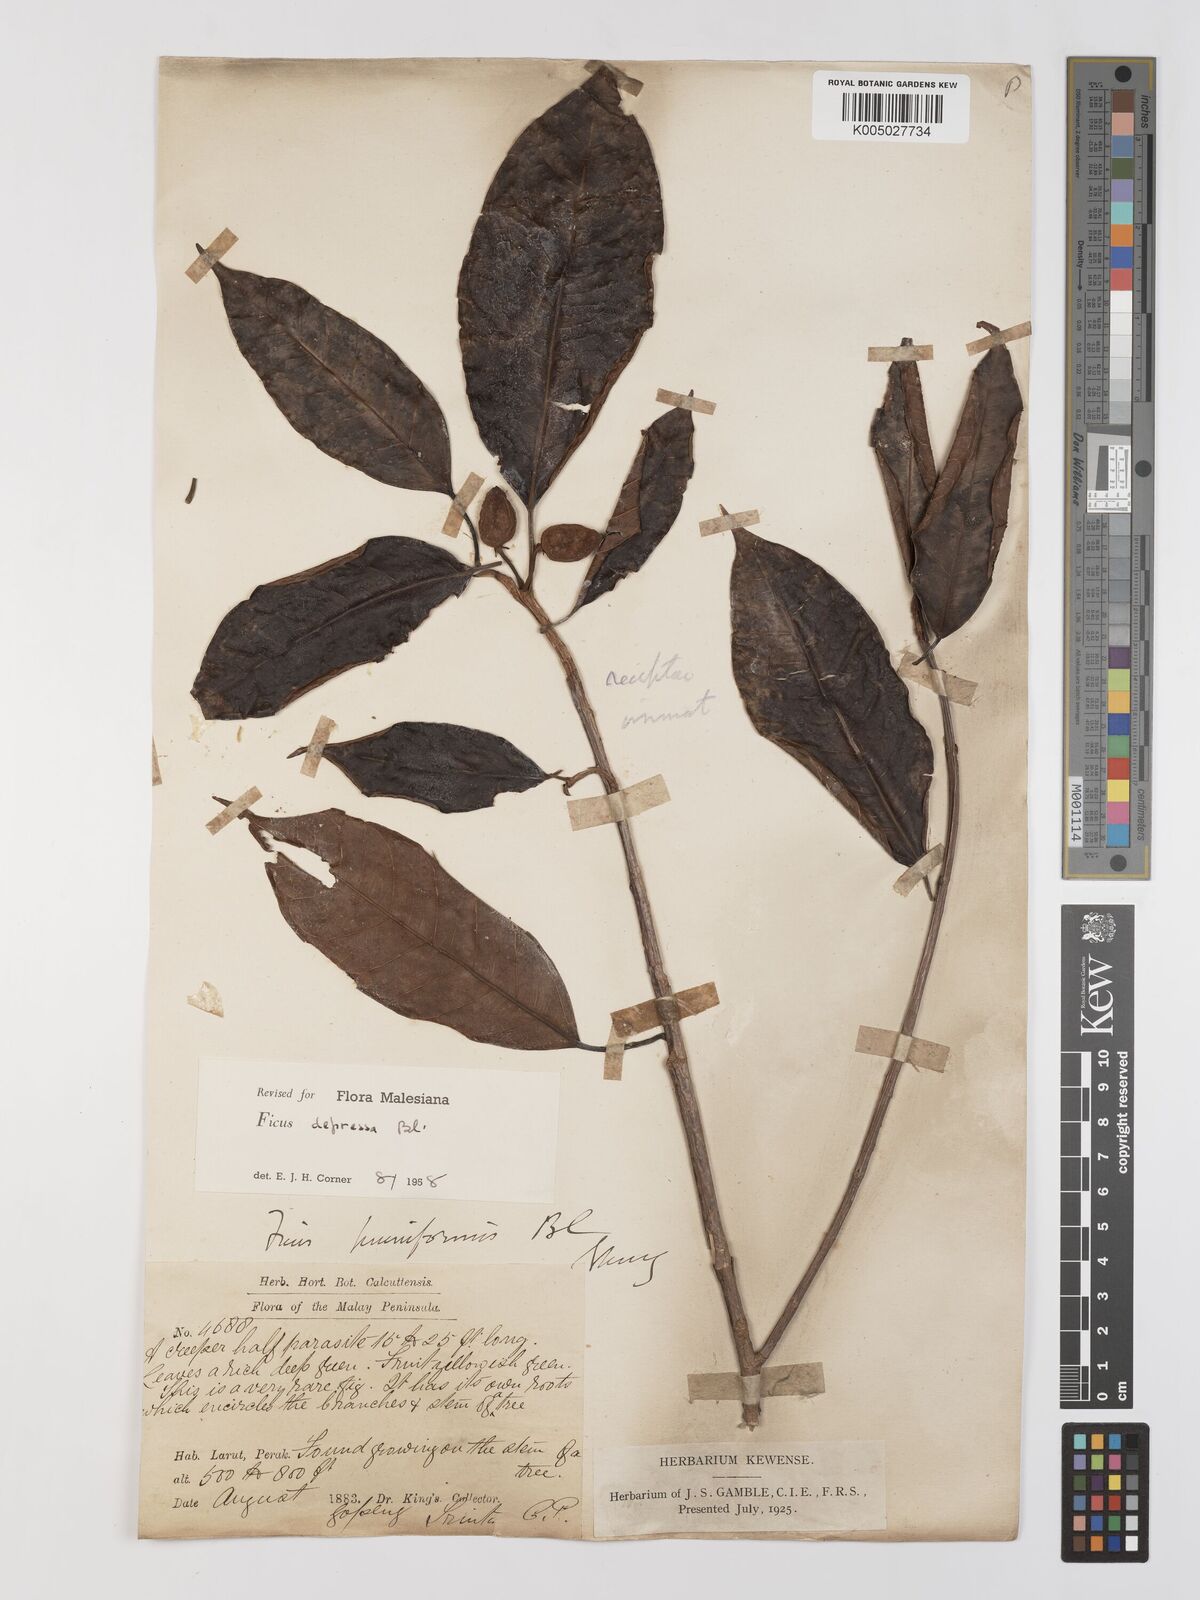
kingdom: Plantae
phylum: Tracheophyta
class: Magnoliopsida
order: Rosales
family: Moraceae
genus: Ficus
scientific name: Ficus
